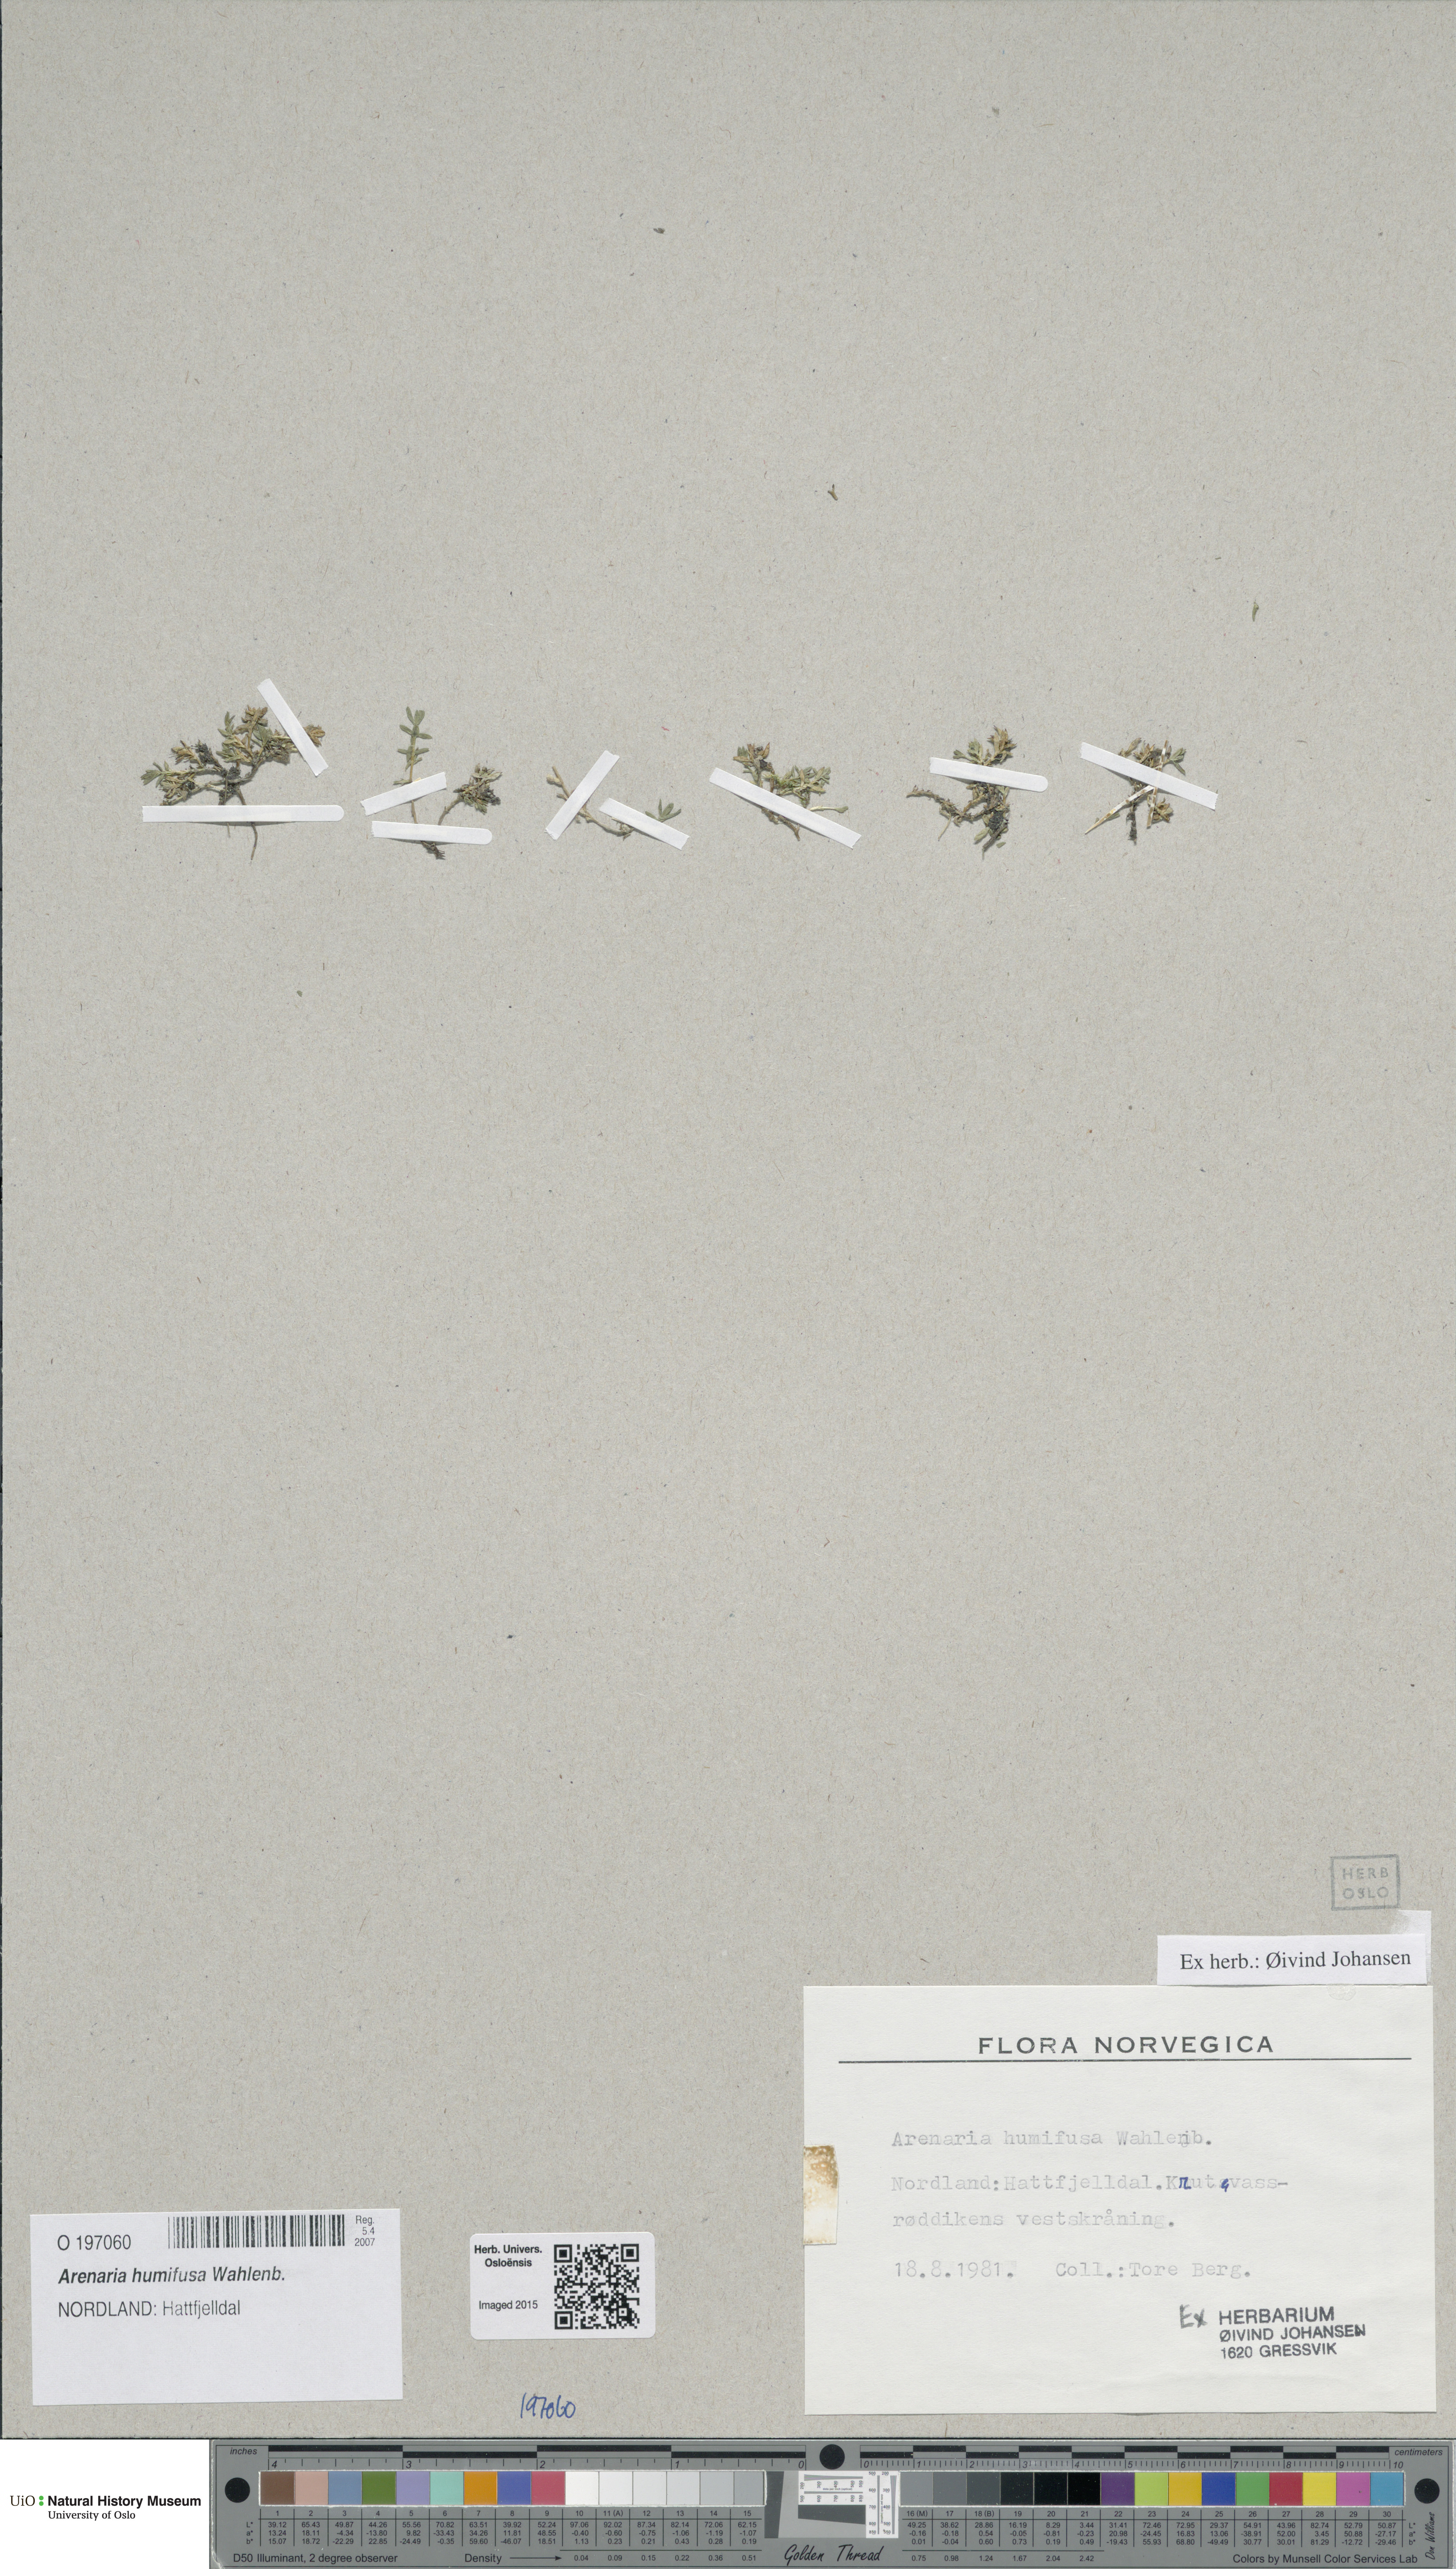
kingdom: Plantae
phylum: Tracheophyta
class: Magnoliopsida
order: Caryophyllales
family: Caryophyllaceae
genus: Arenaria
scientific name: Arenaria humifusa
